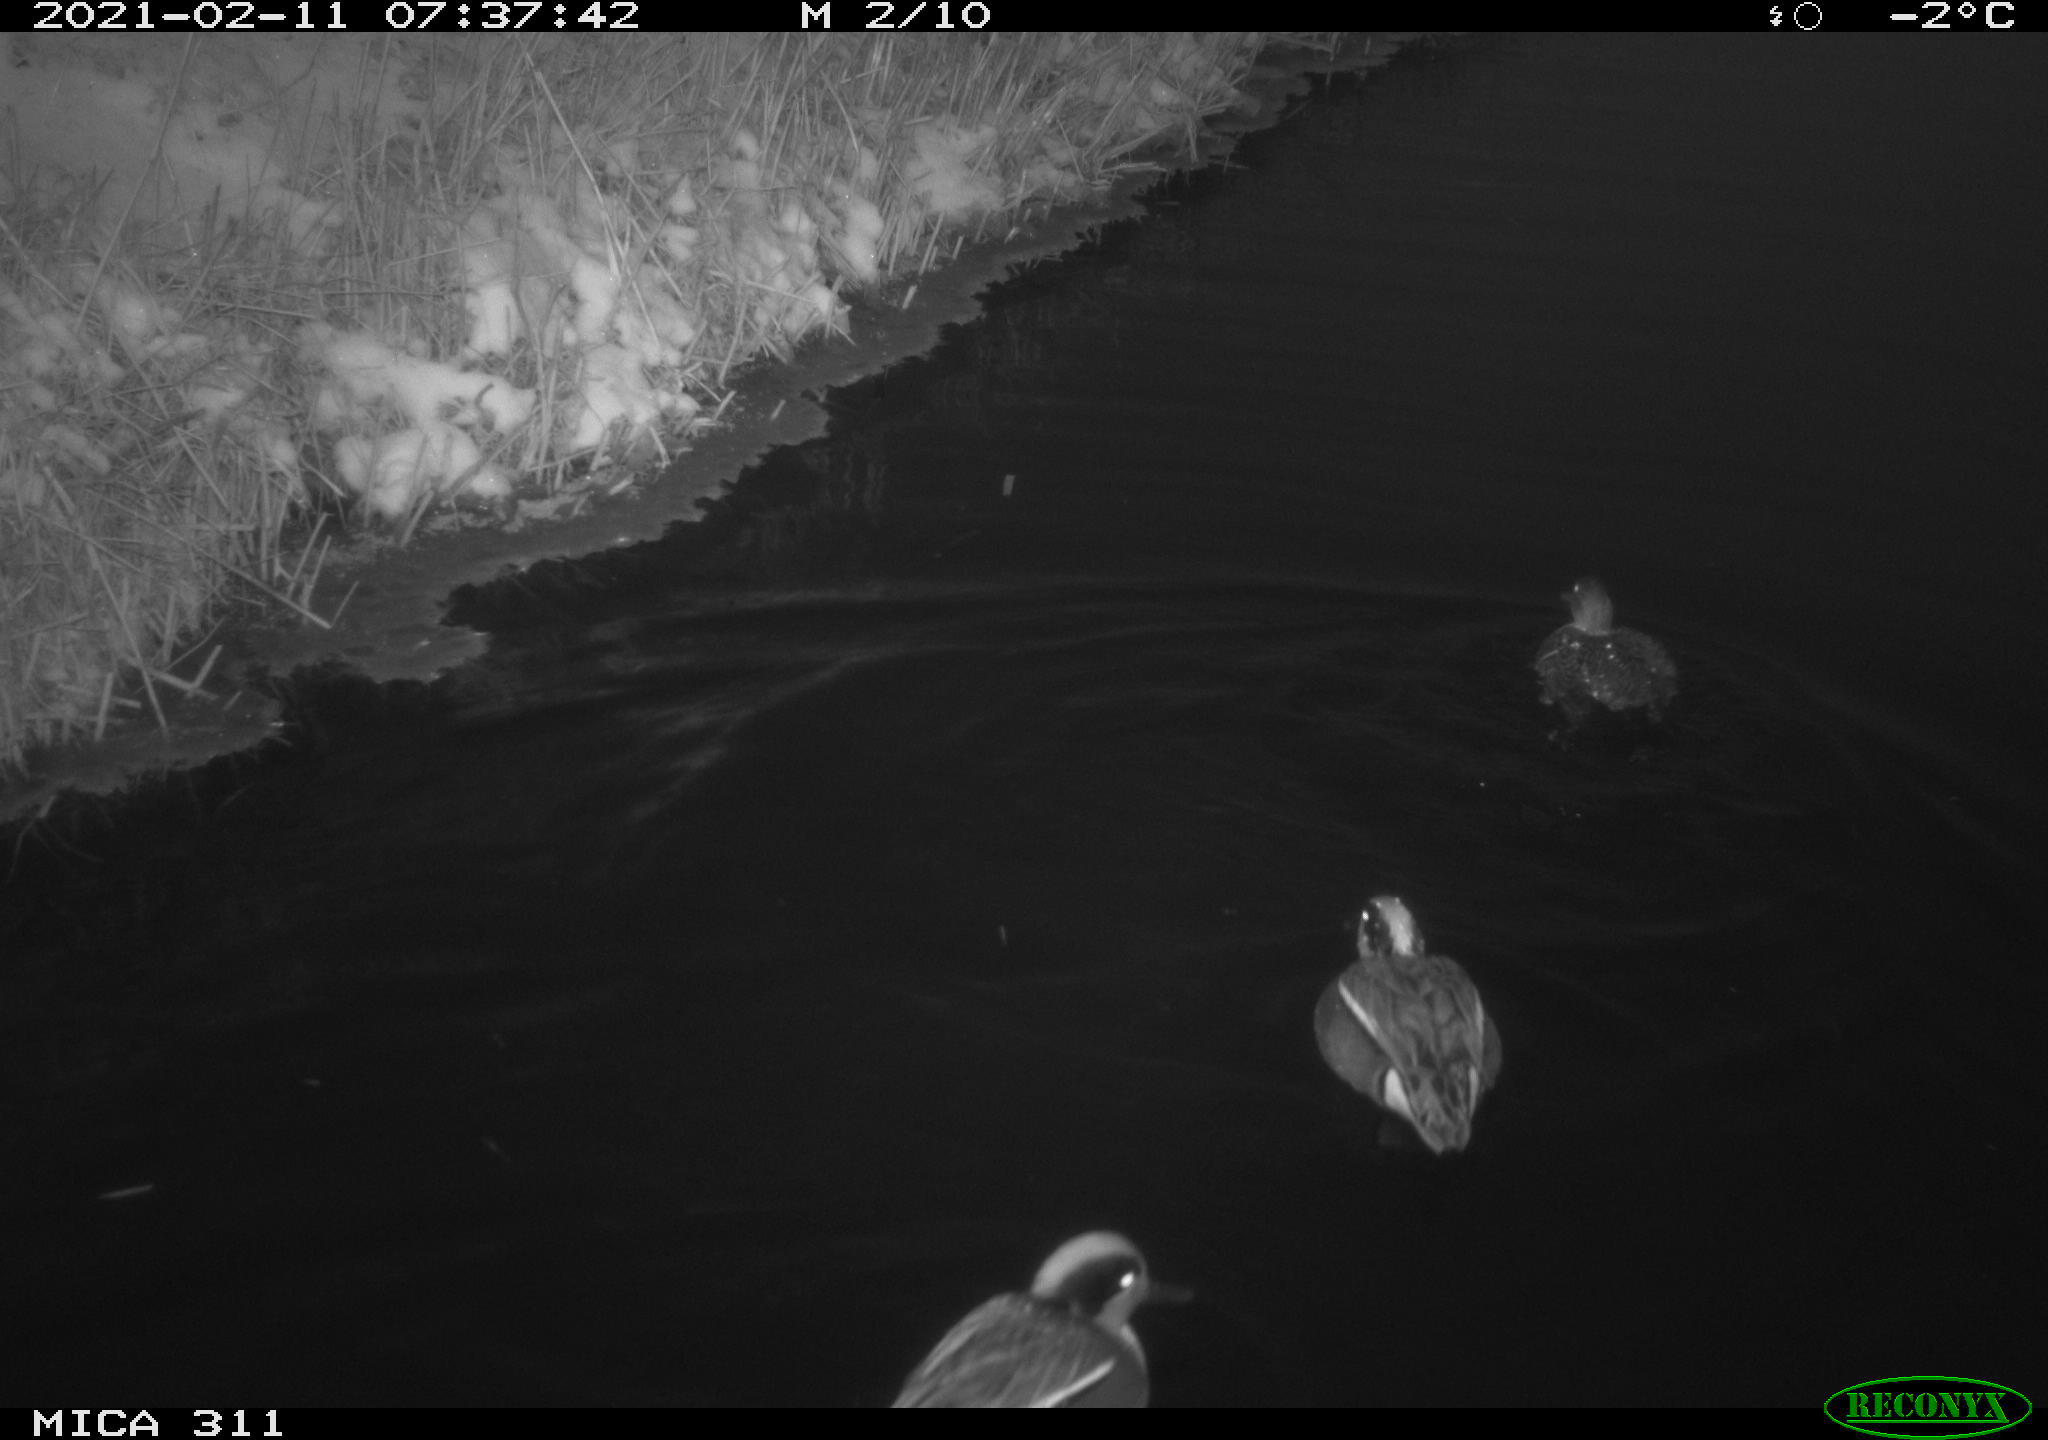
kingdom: Animalia
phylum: Chordata
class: Aves
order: Anseriformes
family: Anatidae
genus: Anas
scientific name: Anas crecca
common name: Eurasian teal
